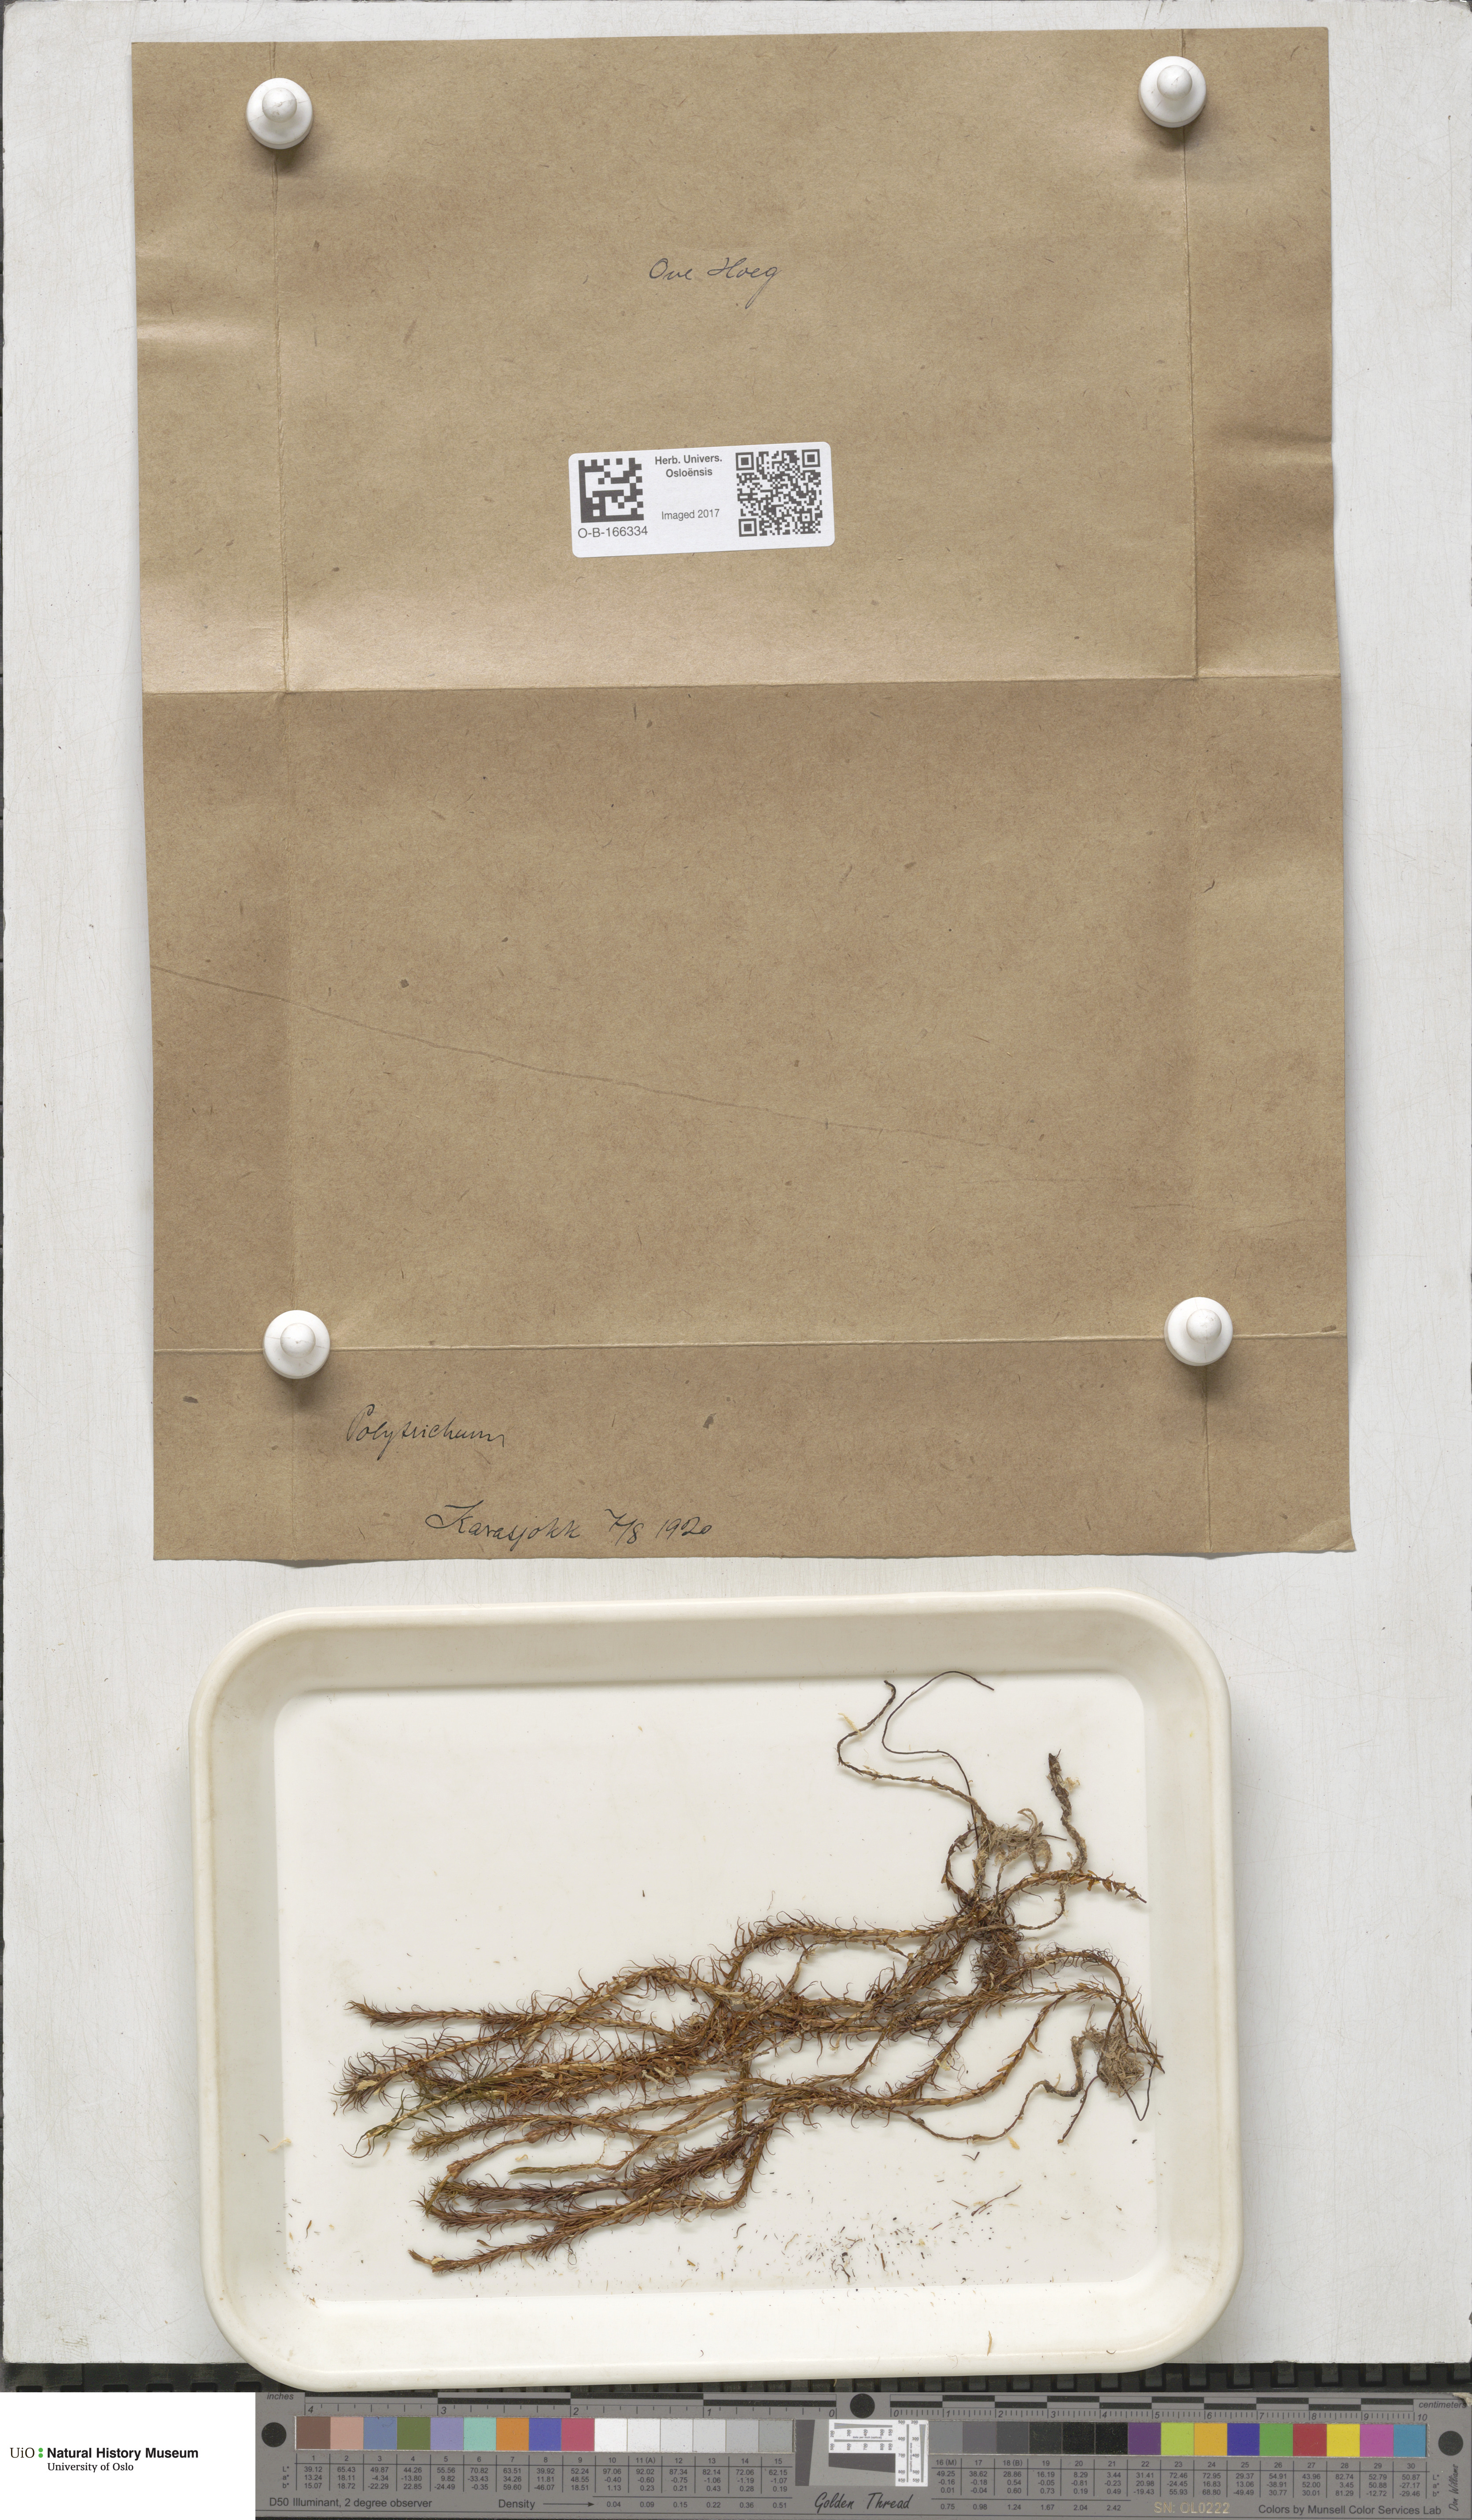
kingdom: Plantae
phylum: Bryophyta
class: Polytrichopsida
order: Polytrichales
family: Polytrichaceae
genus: Polytrichum
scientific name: Polytrichum
